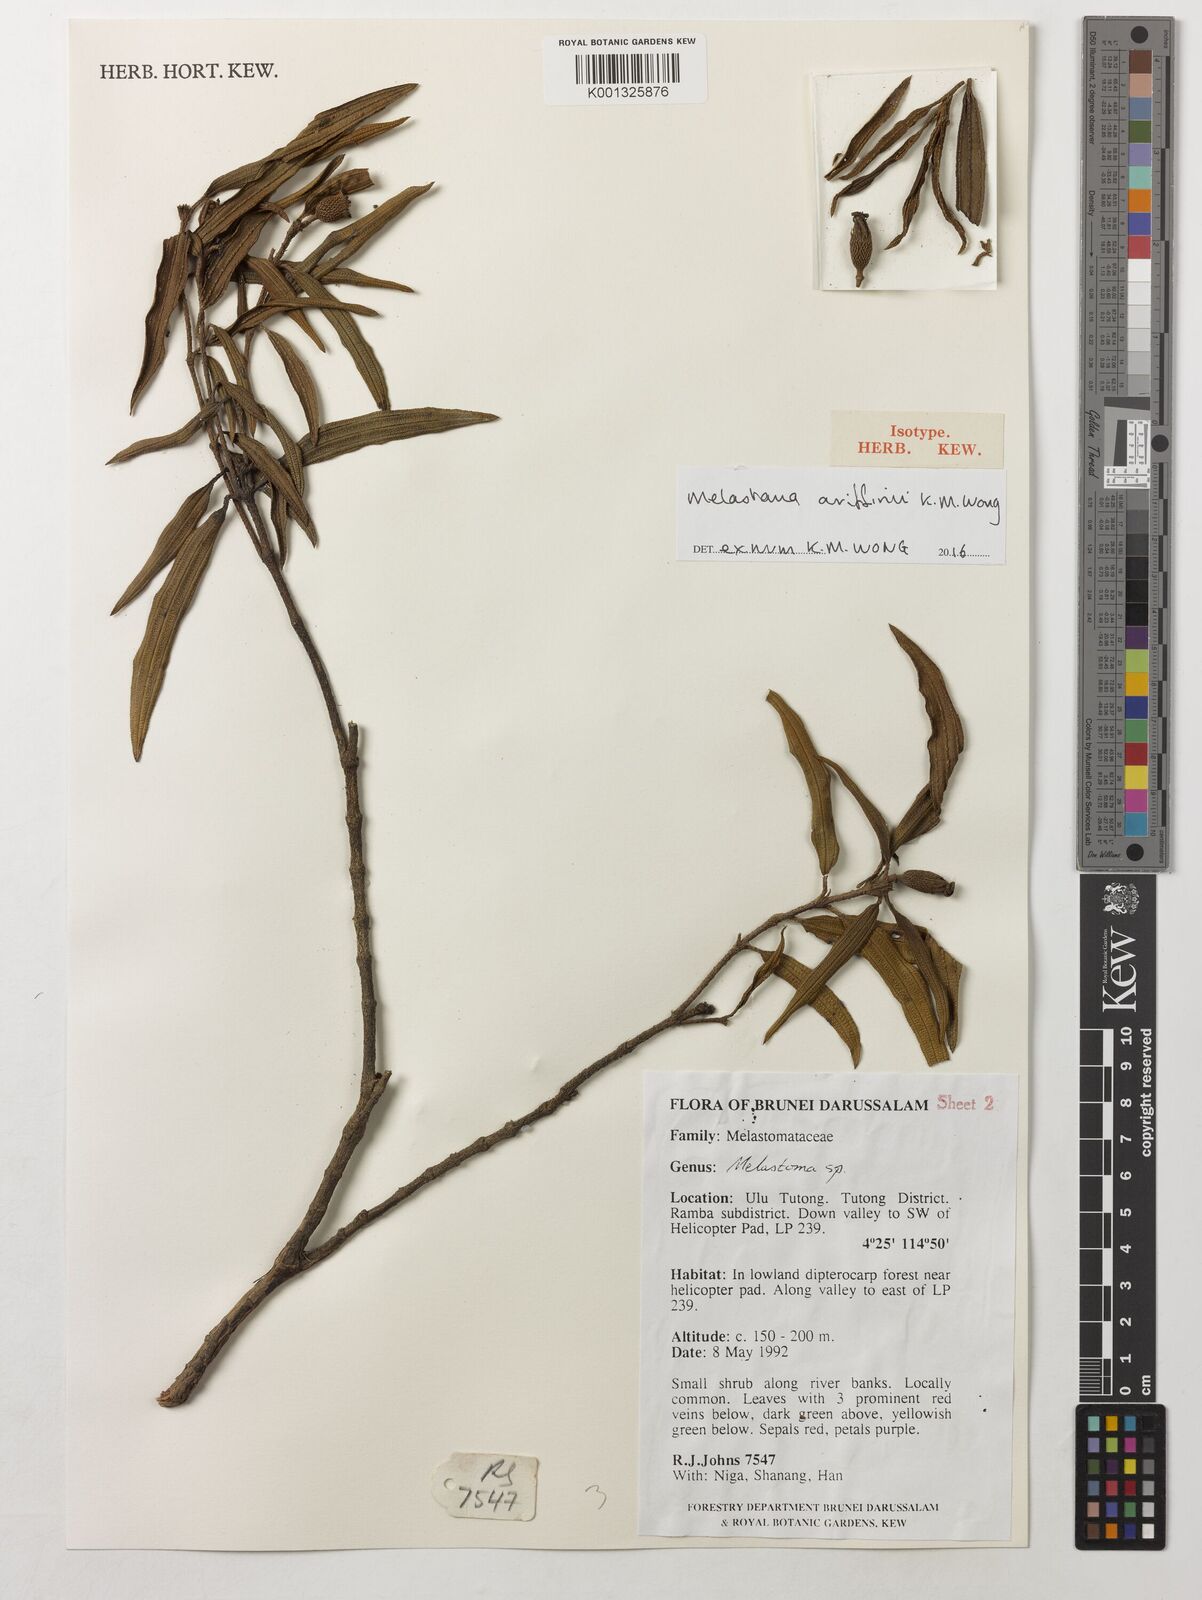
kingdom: Plantae
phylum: Tracheophyta
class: Magnoliopsida
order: Myrtales
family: Melastomataceae
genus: Melastoma
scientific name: Melastoma ariffinii
